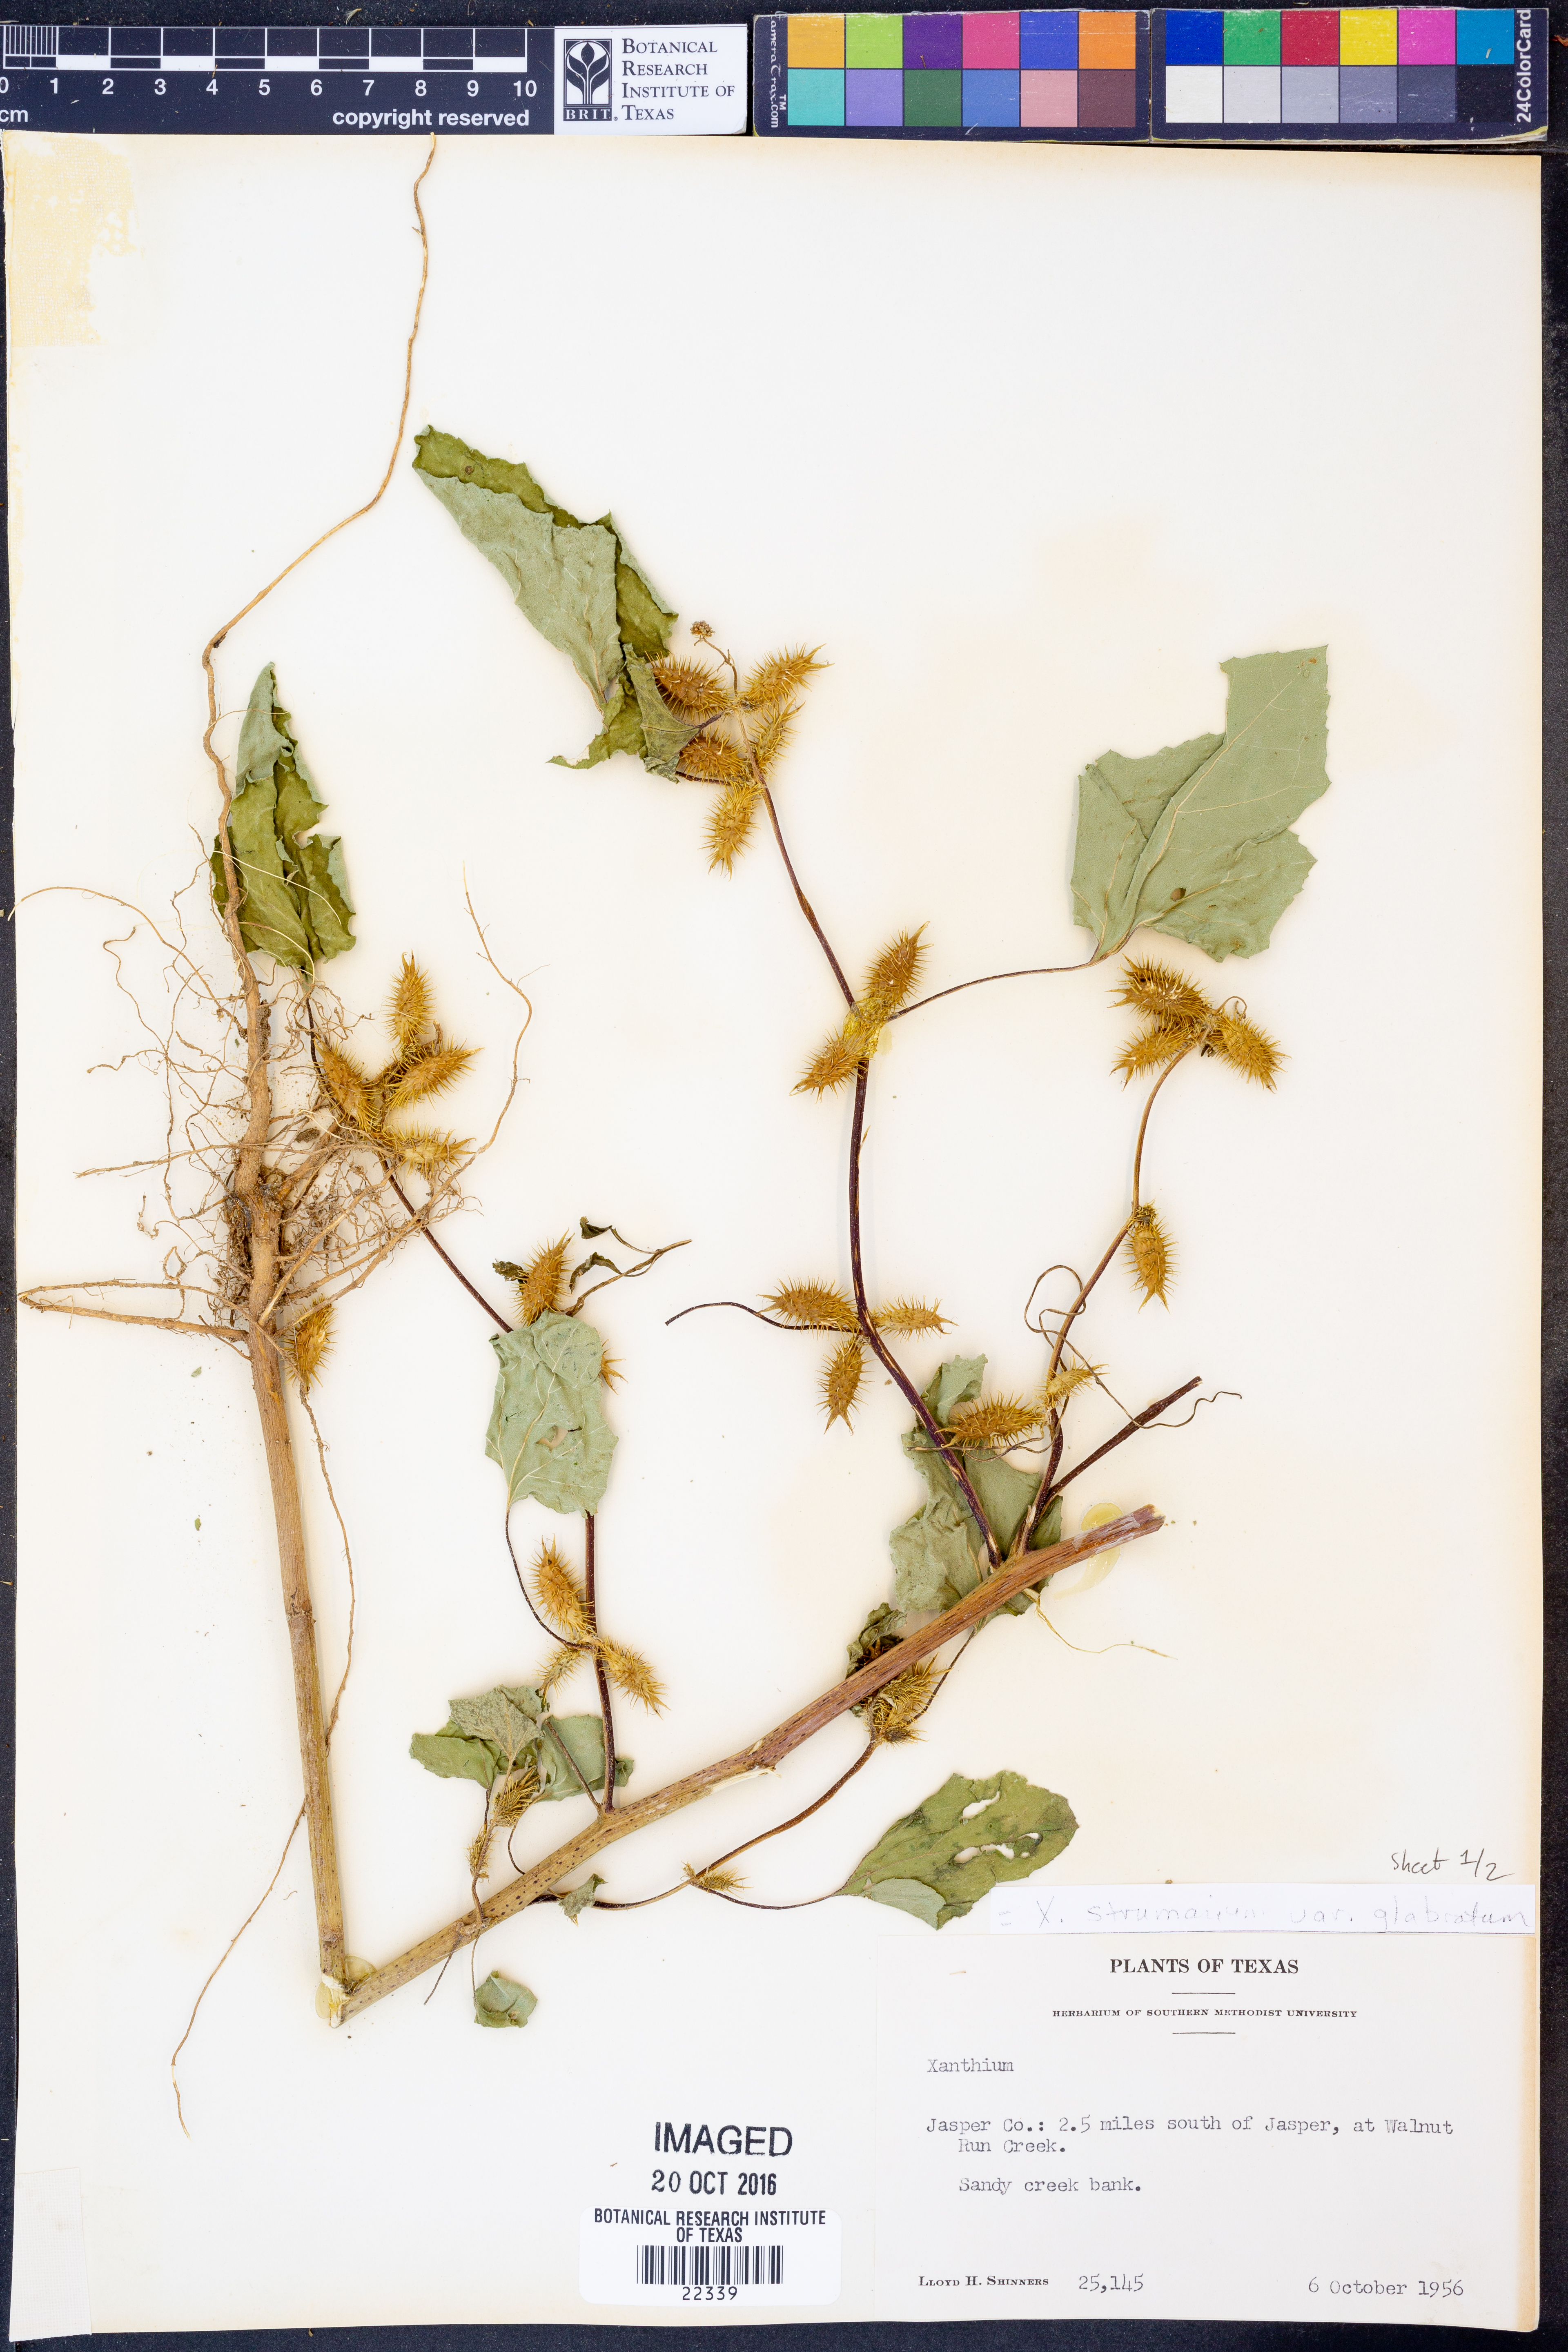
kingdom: Plantae
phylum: Tracheophyta
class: Magnoliopsida
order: Asterales
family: Asteraceae
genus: Xanthium
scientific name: Xanthium occidentale
